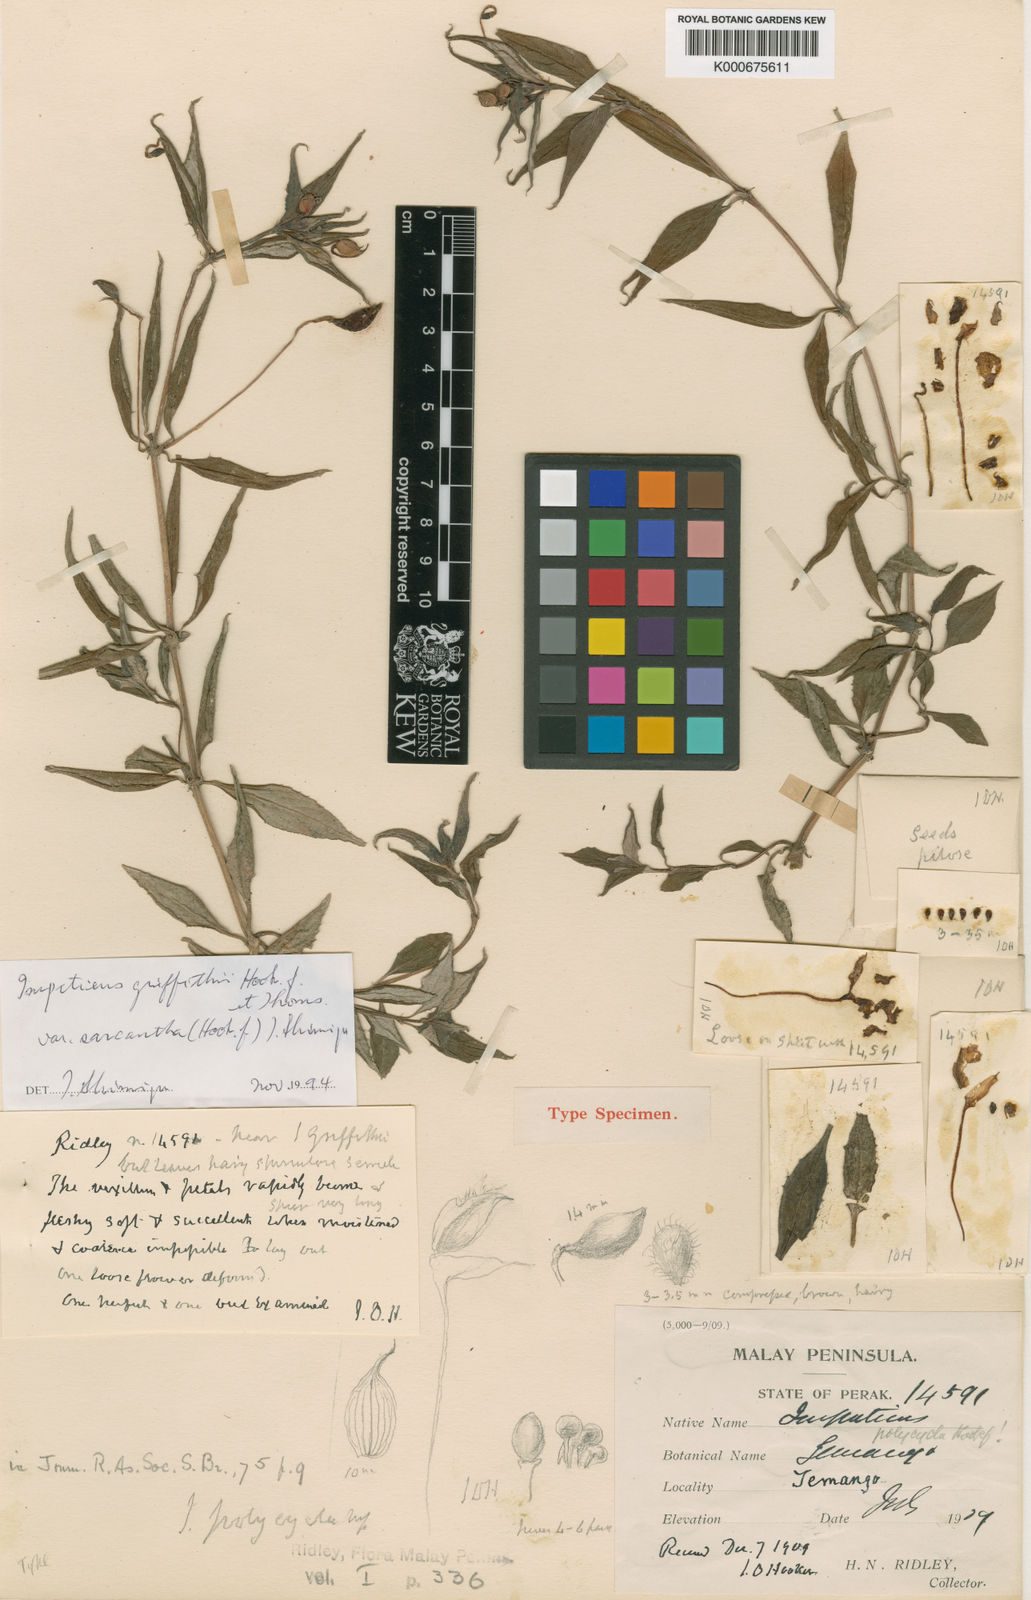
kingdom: Plantae
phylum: Tracheophyta
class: Magnoliopsida
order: Ericales
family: Balsaminaceae
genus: Impatiens
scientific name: Impatiens griffithii
